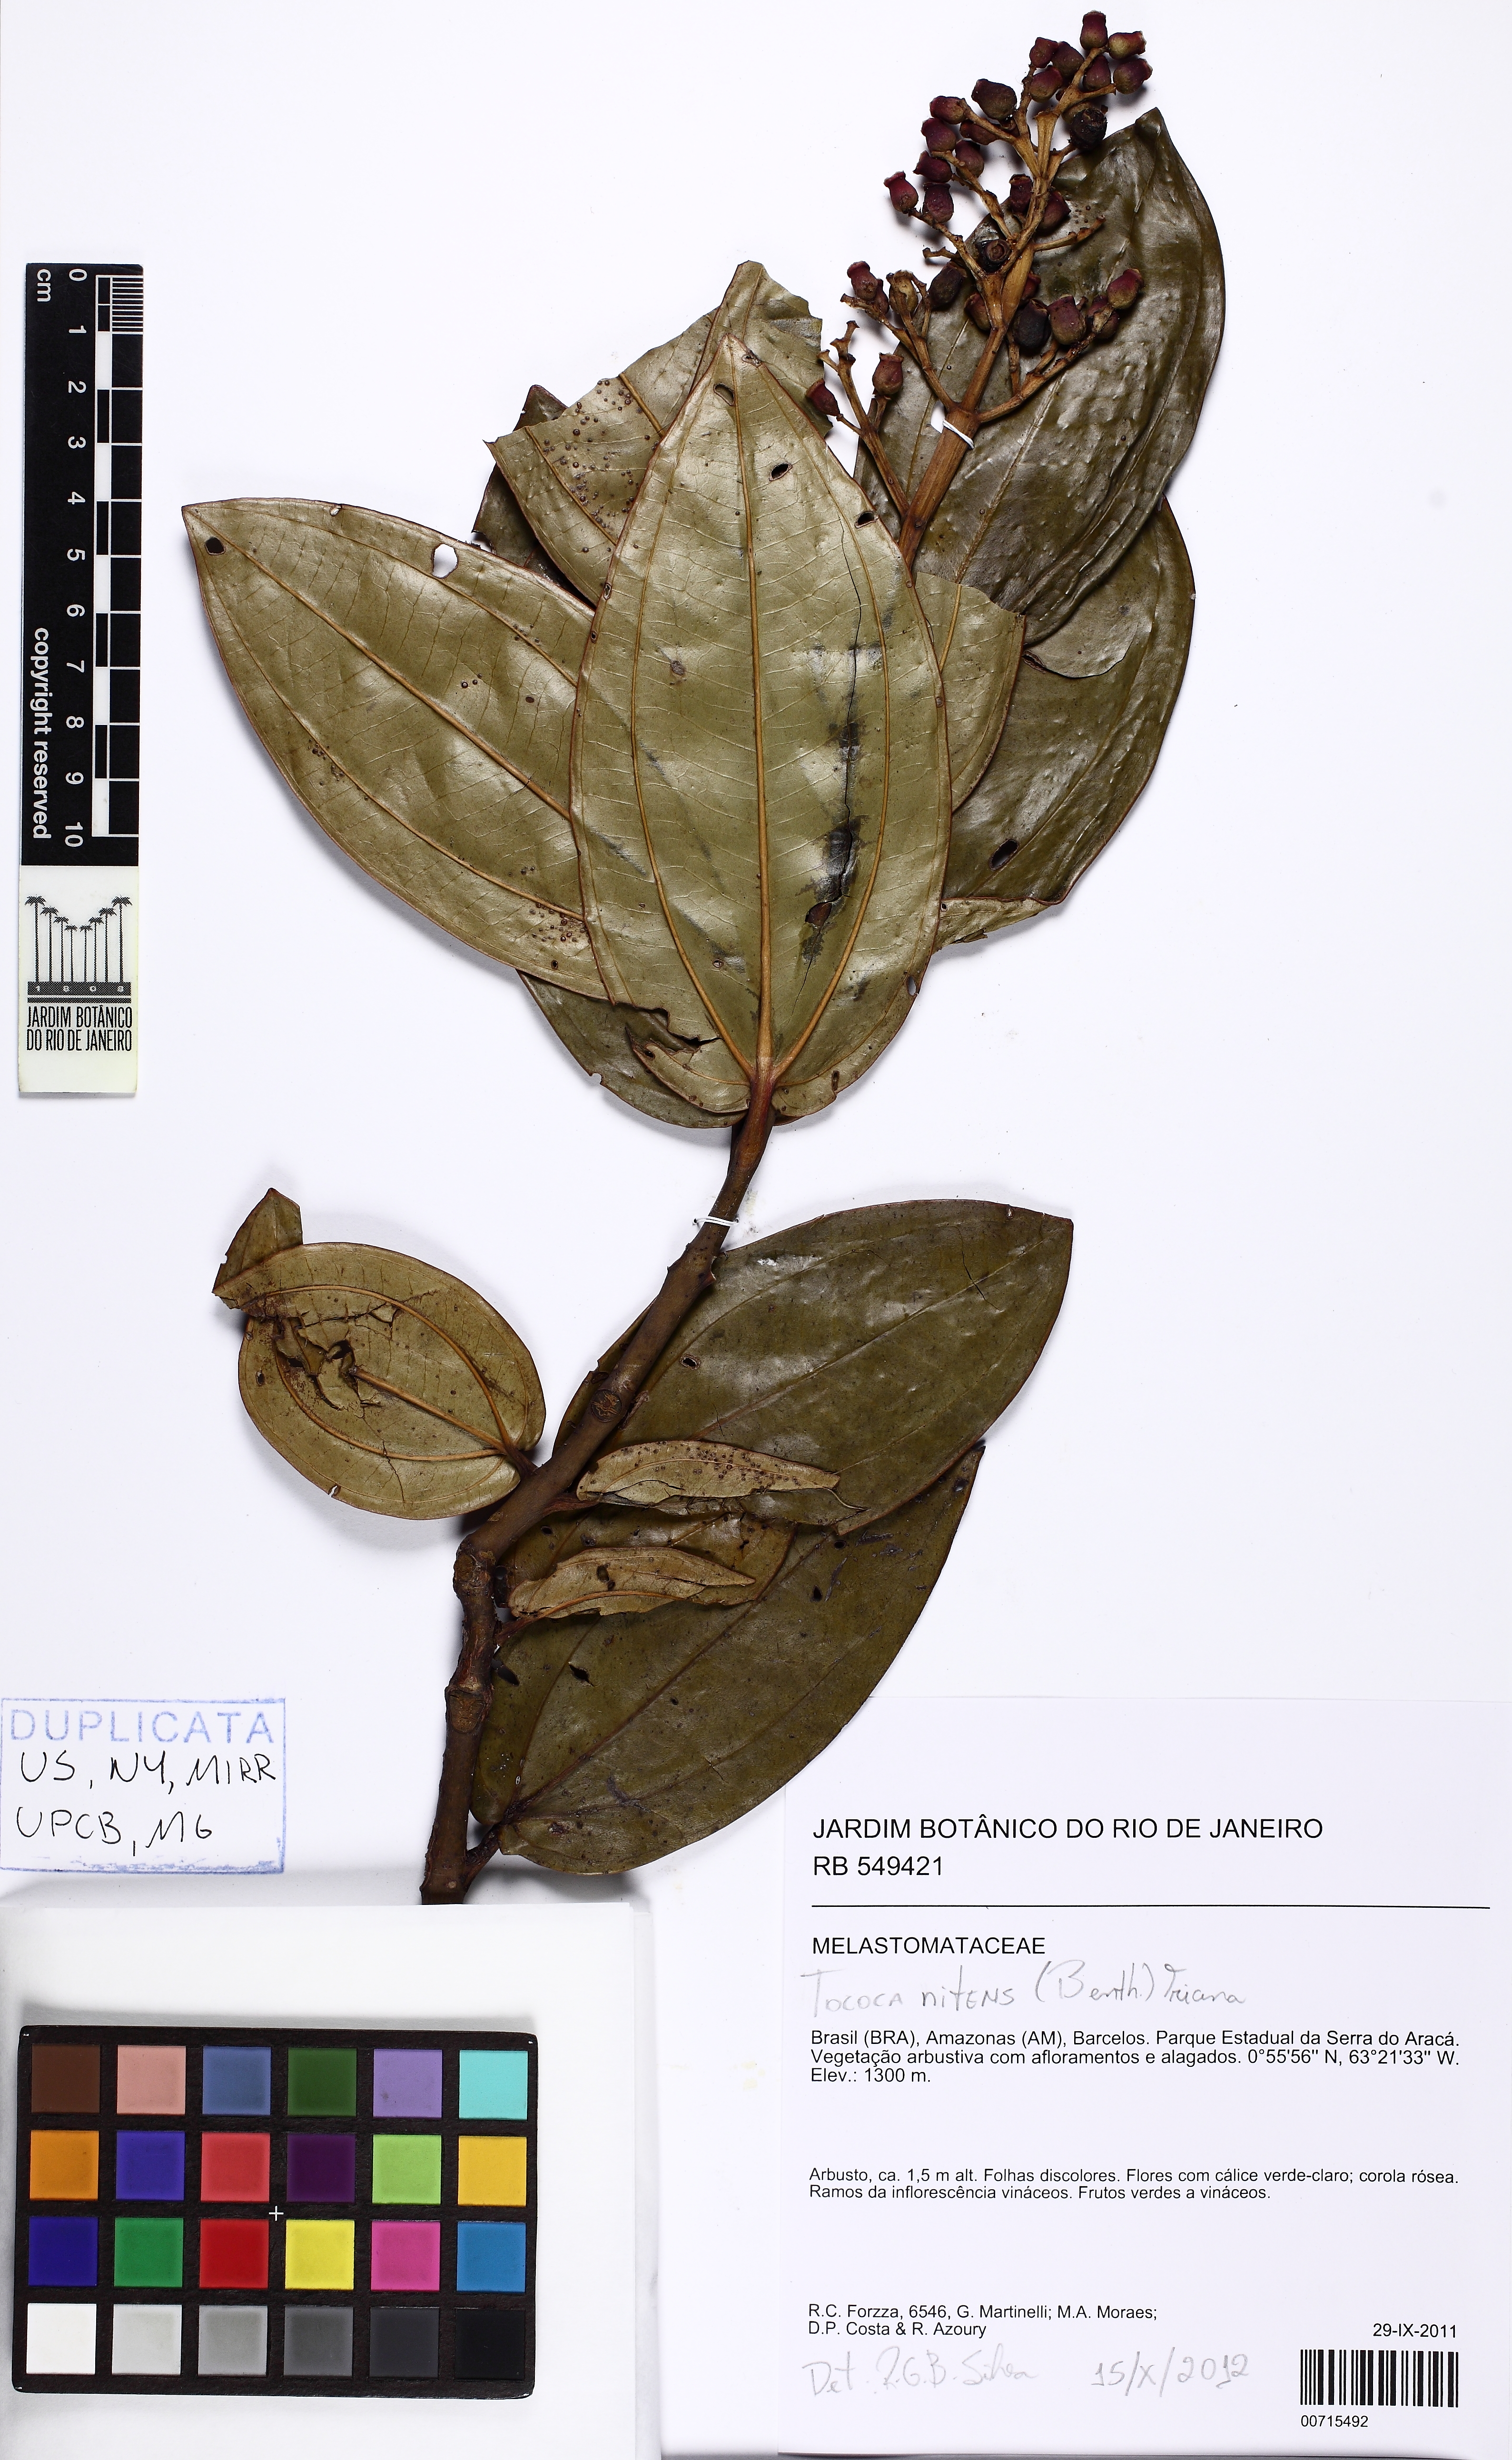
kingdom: Plantae
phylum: Tracheophyta
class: Magnoliopsida
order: Myrtales
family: Melastomataceae
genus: Miconia
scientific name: Miconia nitens
